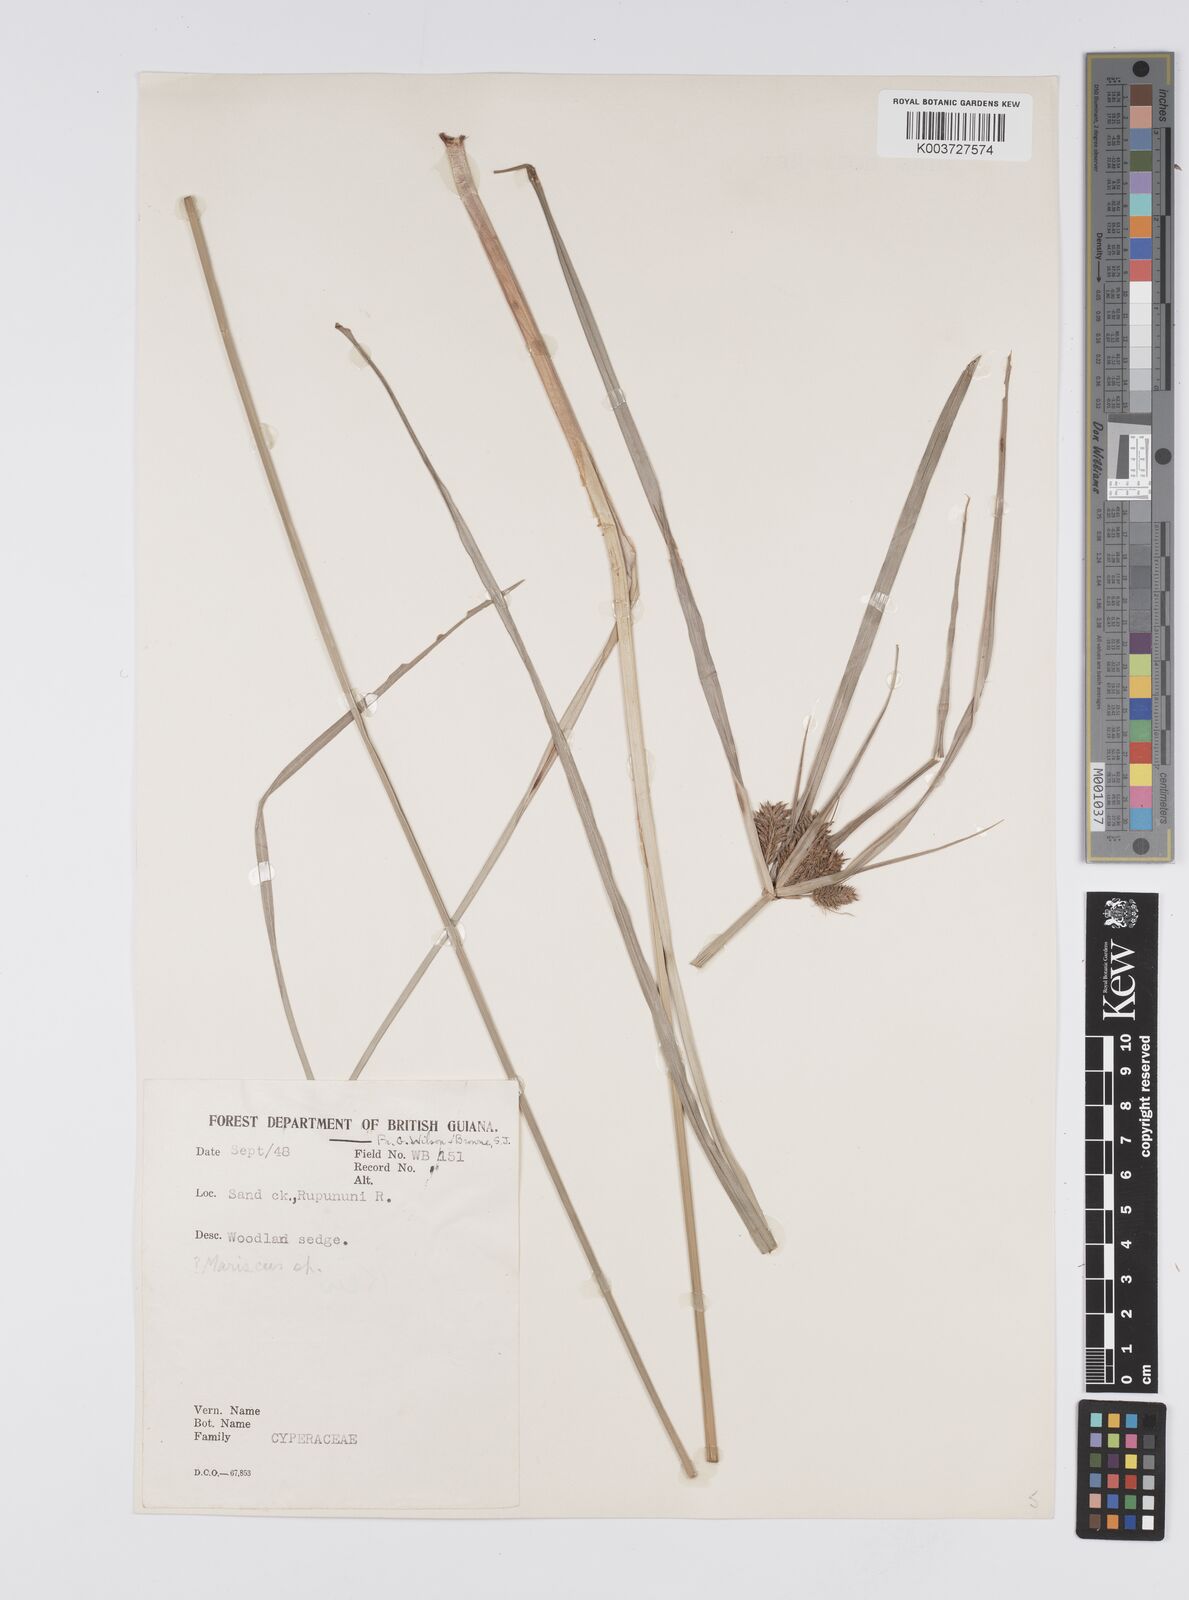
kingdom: Plantae
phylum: Tracheophyta
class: Liliopsida
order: Poales
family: Cyperaceae
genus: Cyperus
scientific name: Cyperus aggregatus
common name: Inflatedscale flatsedge
